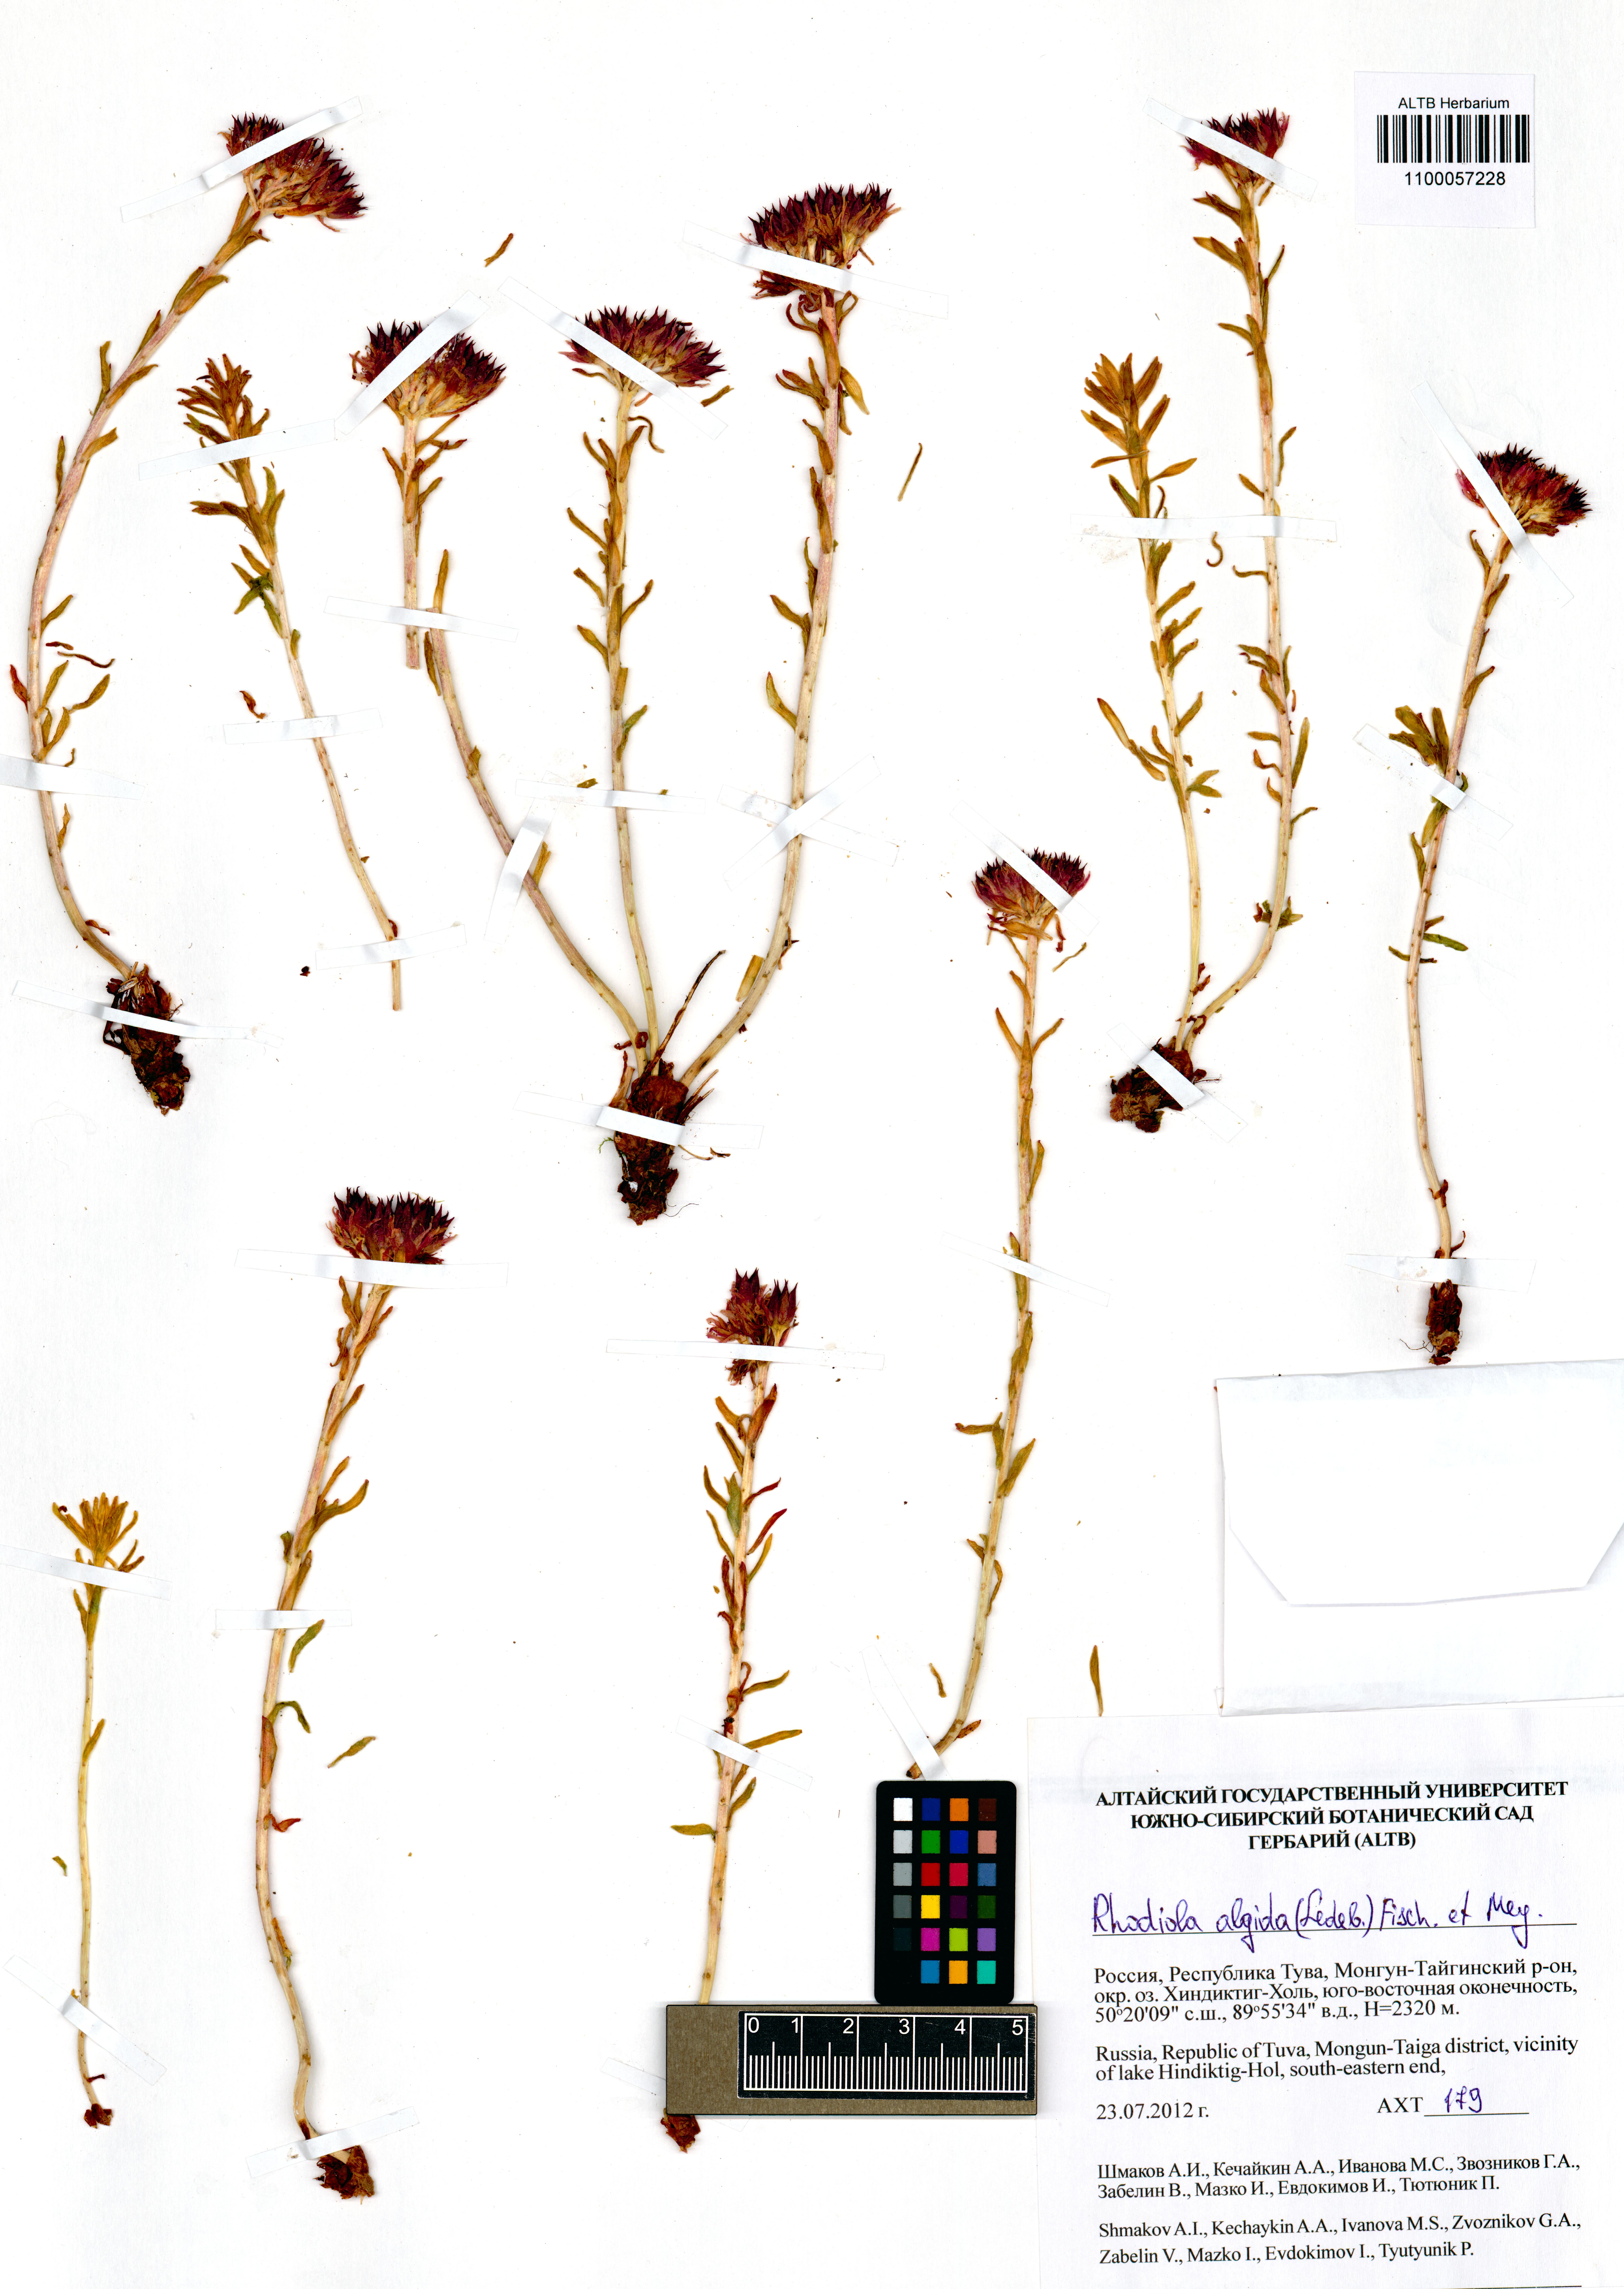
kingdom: Plantae
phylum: Tracheophyta
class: Magnoliopsida
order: Saxifragales
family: Crassulaceae
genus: Rhodiola
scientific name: Rhodiola algida
